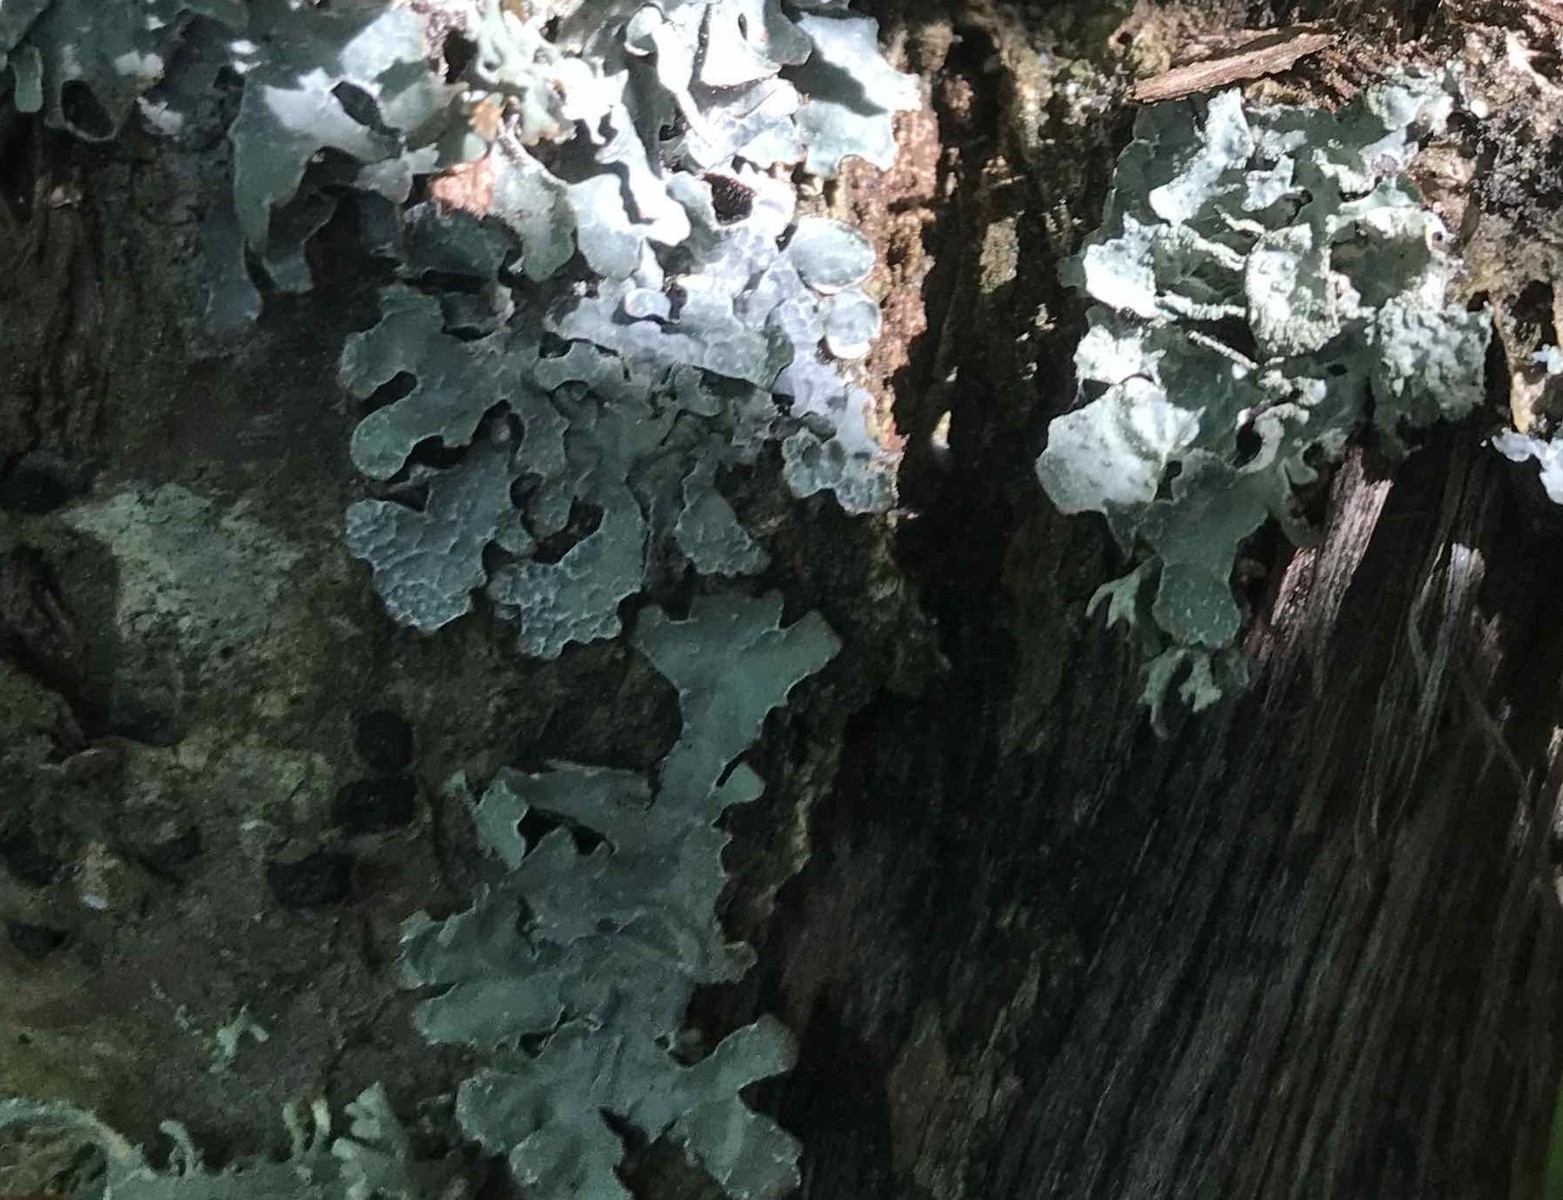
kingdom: Fungi
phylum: Ascomycota
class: Lecanoromycetes
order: Lecanorales
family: Parmeliaceae
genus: Parmelia
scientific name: Parmelia sulcata
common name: rynket skållav
